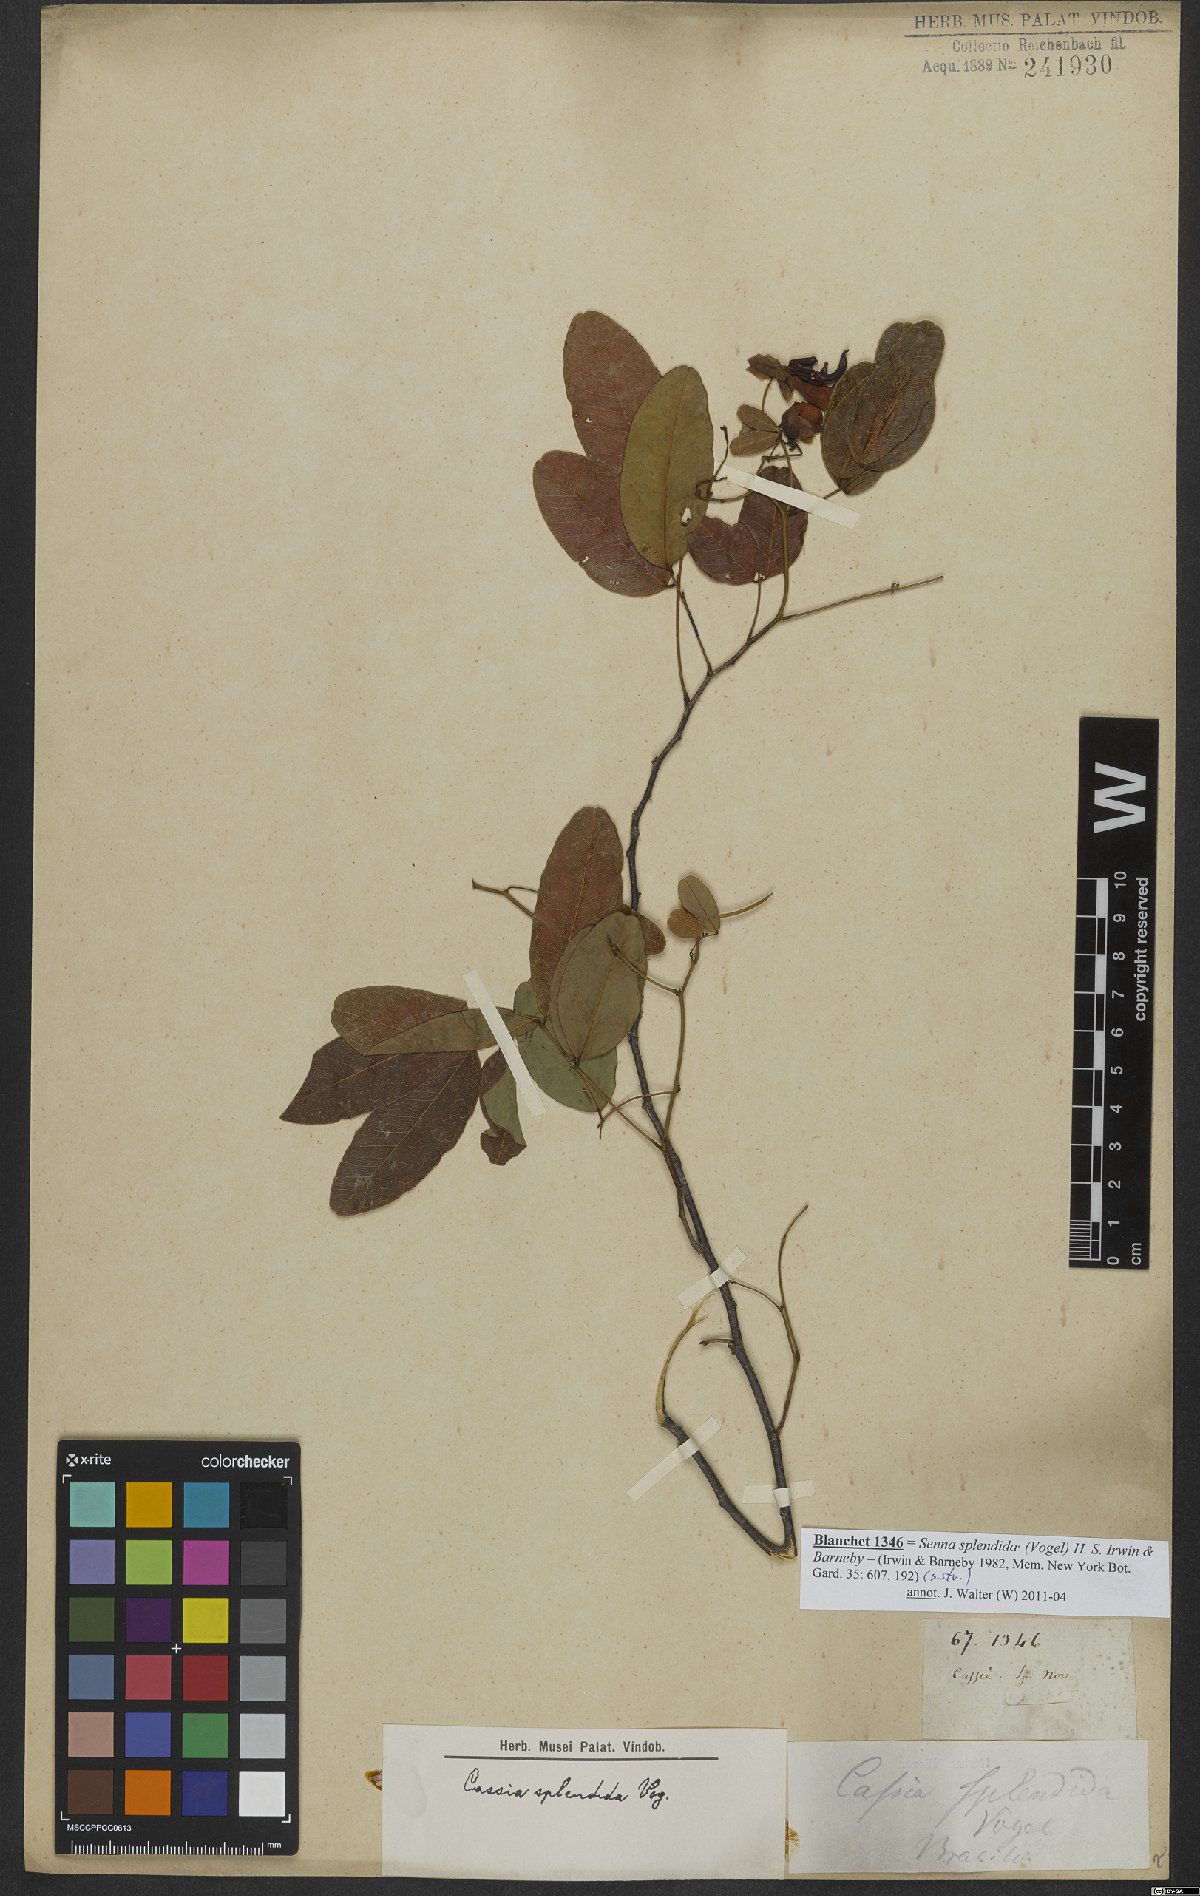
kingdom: Plantae
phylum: Tracheophyta
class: Magnoliopsida
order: Fabales
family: Fabaceae
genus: Senna
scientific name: Senna splendida
